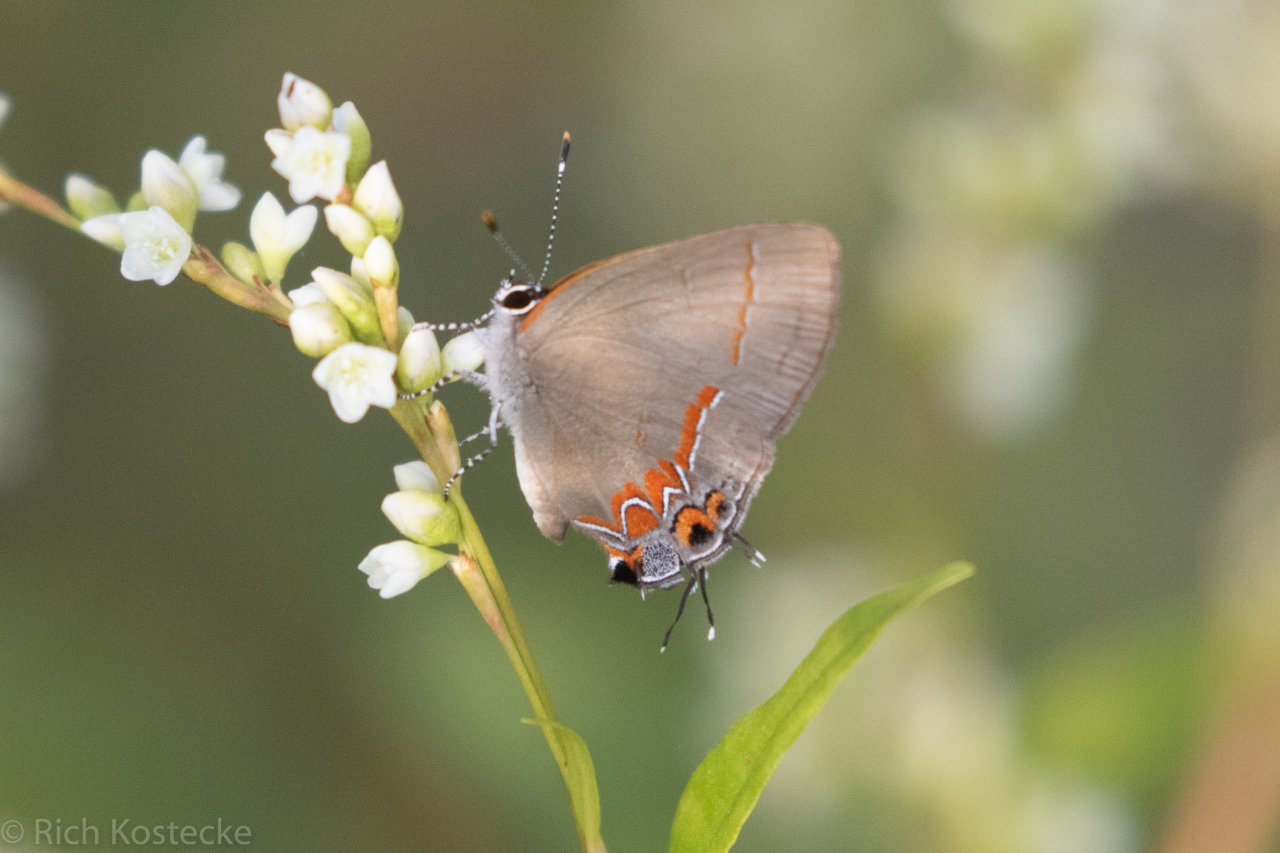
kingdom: Animalia
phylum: Arthropoda
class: Insecta
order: Lepidoptera
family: Lycaenidae
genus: Calycopis
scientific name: Calycopis isobeon
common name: Dusky-blue Groundstreak
